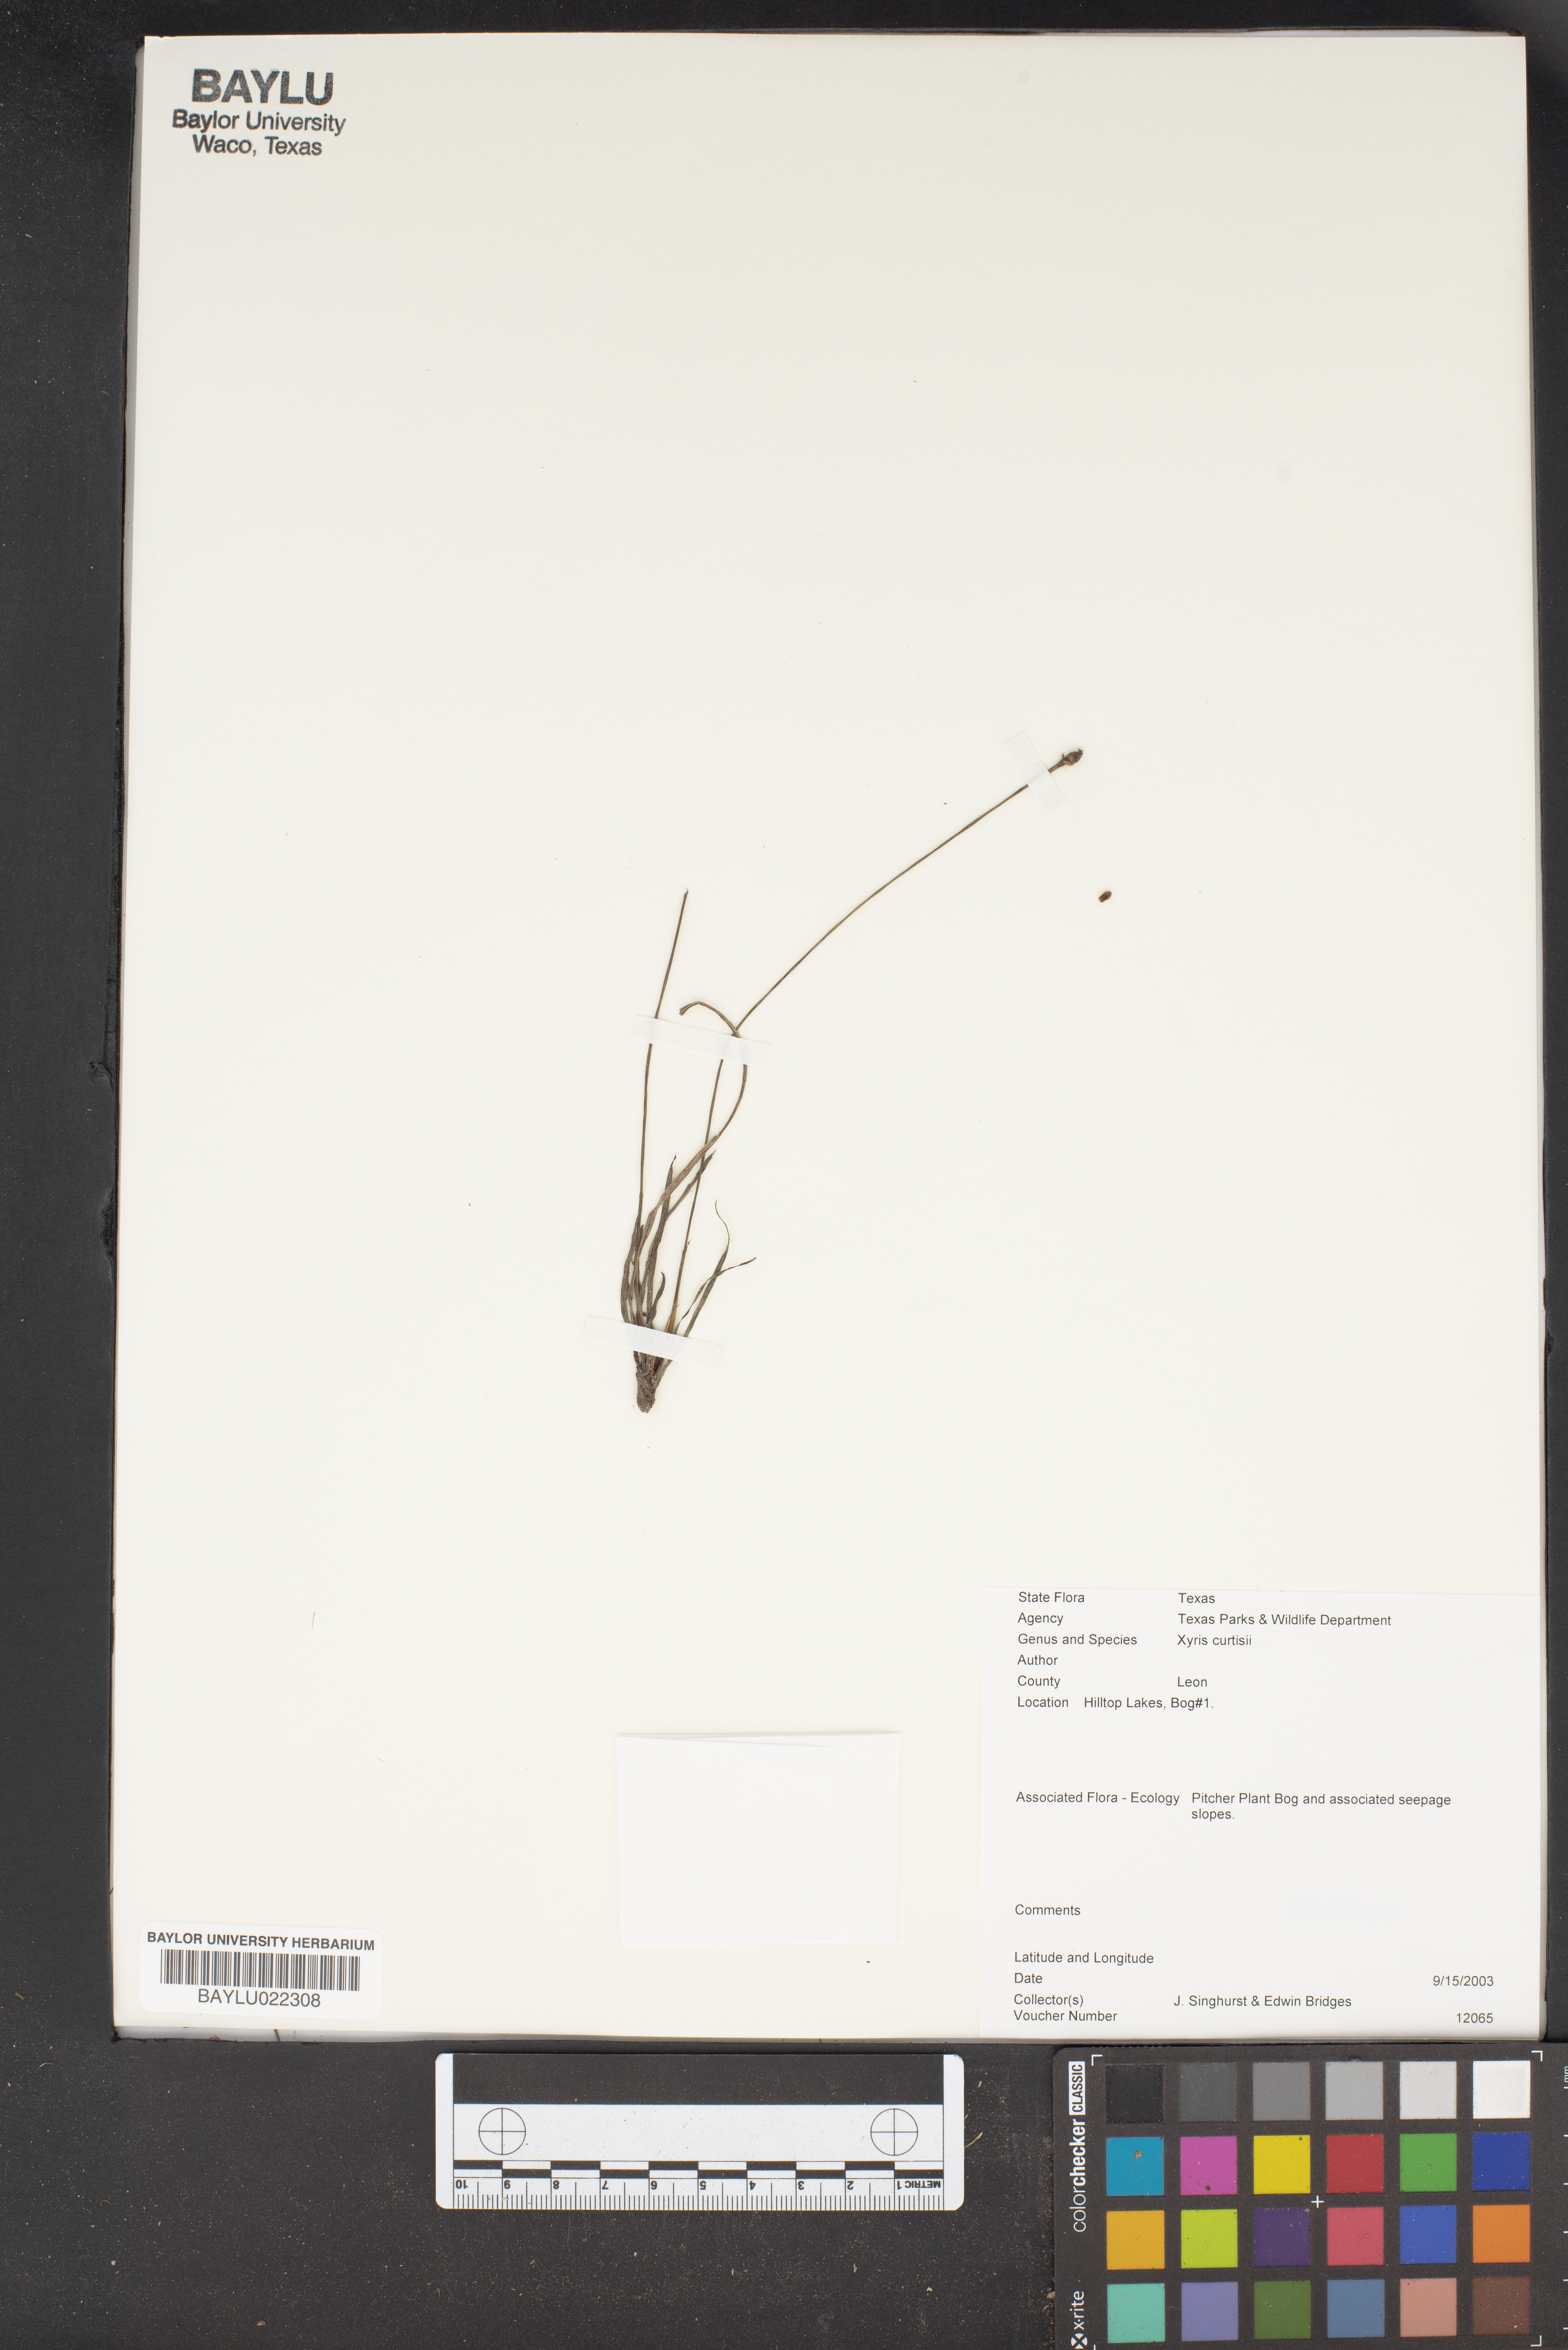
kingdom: Plantae
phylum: Tracheophyta
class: Liliopsida
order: Poales
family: Xyridaceae
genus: Xyris
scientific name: Xyris difformis
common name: Bog yellow-eyed-grass
